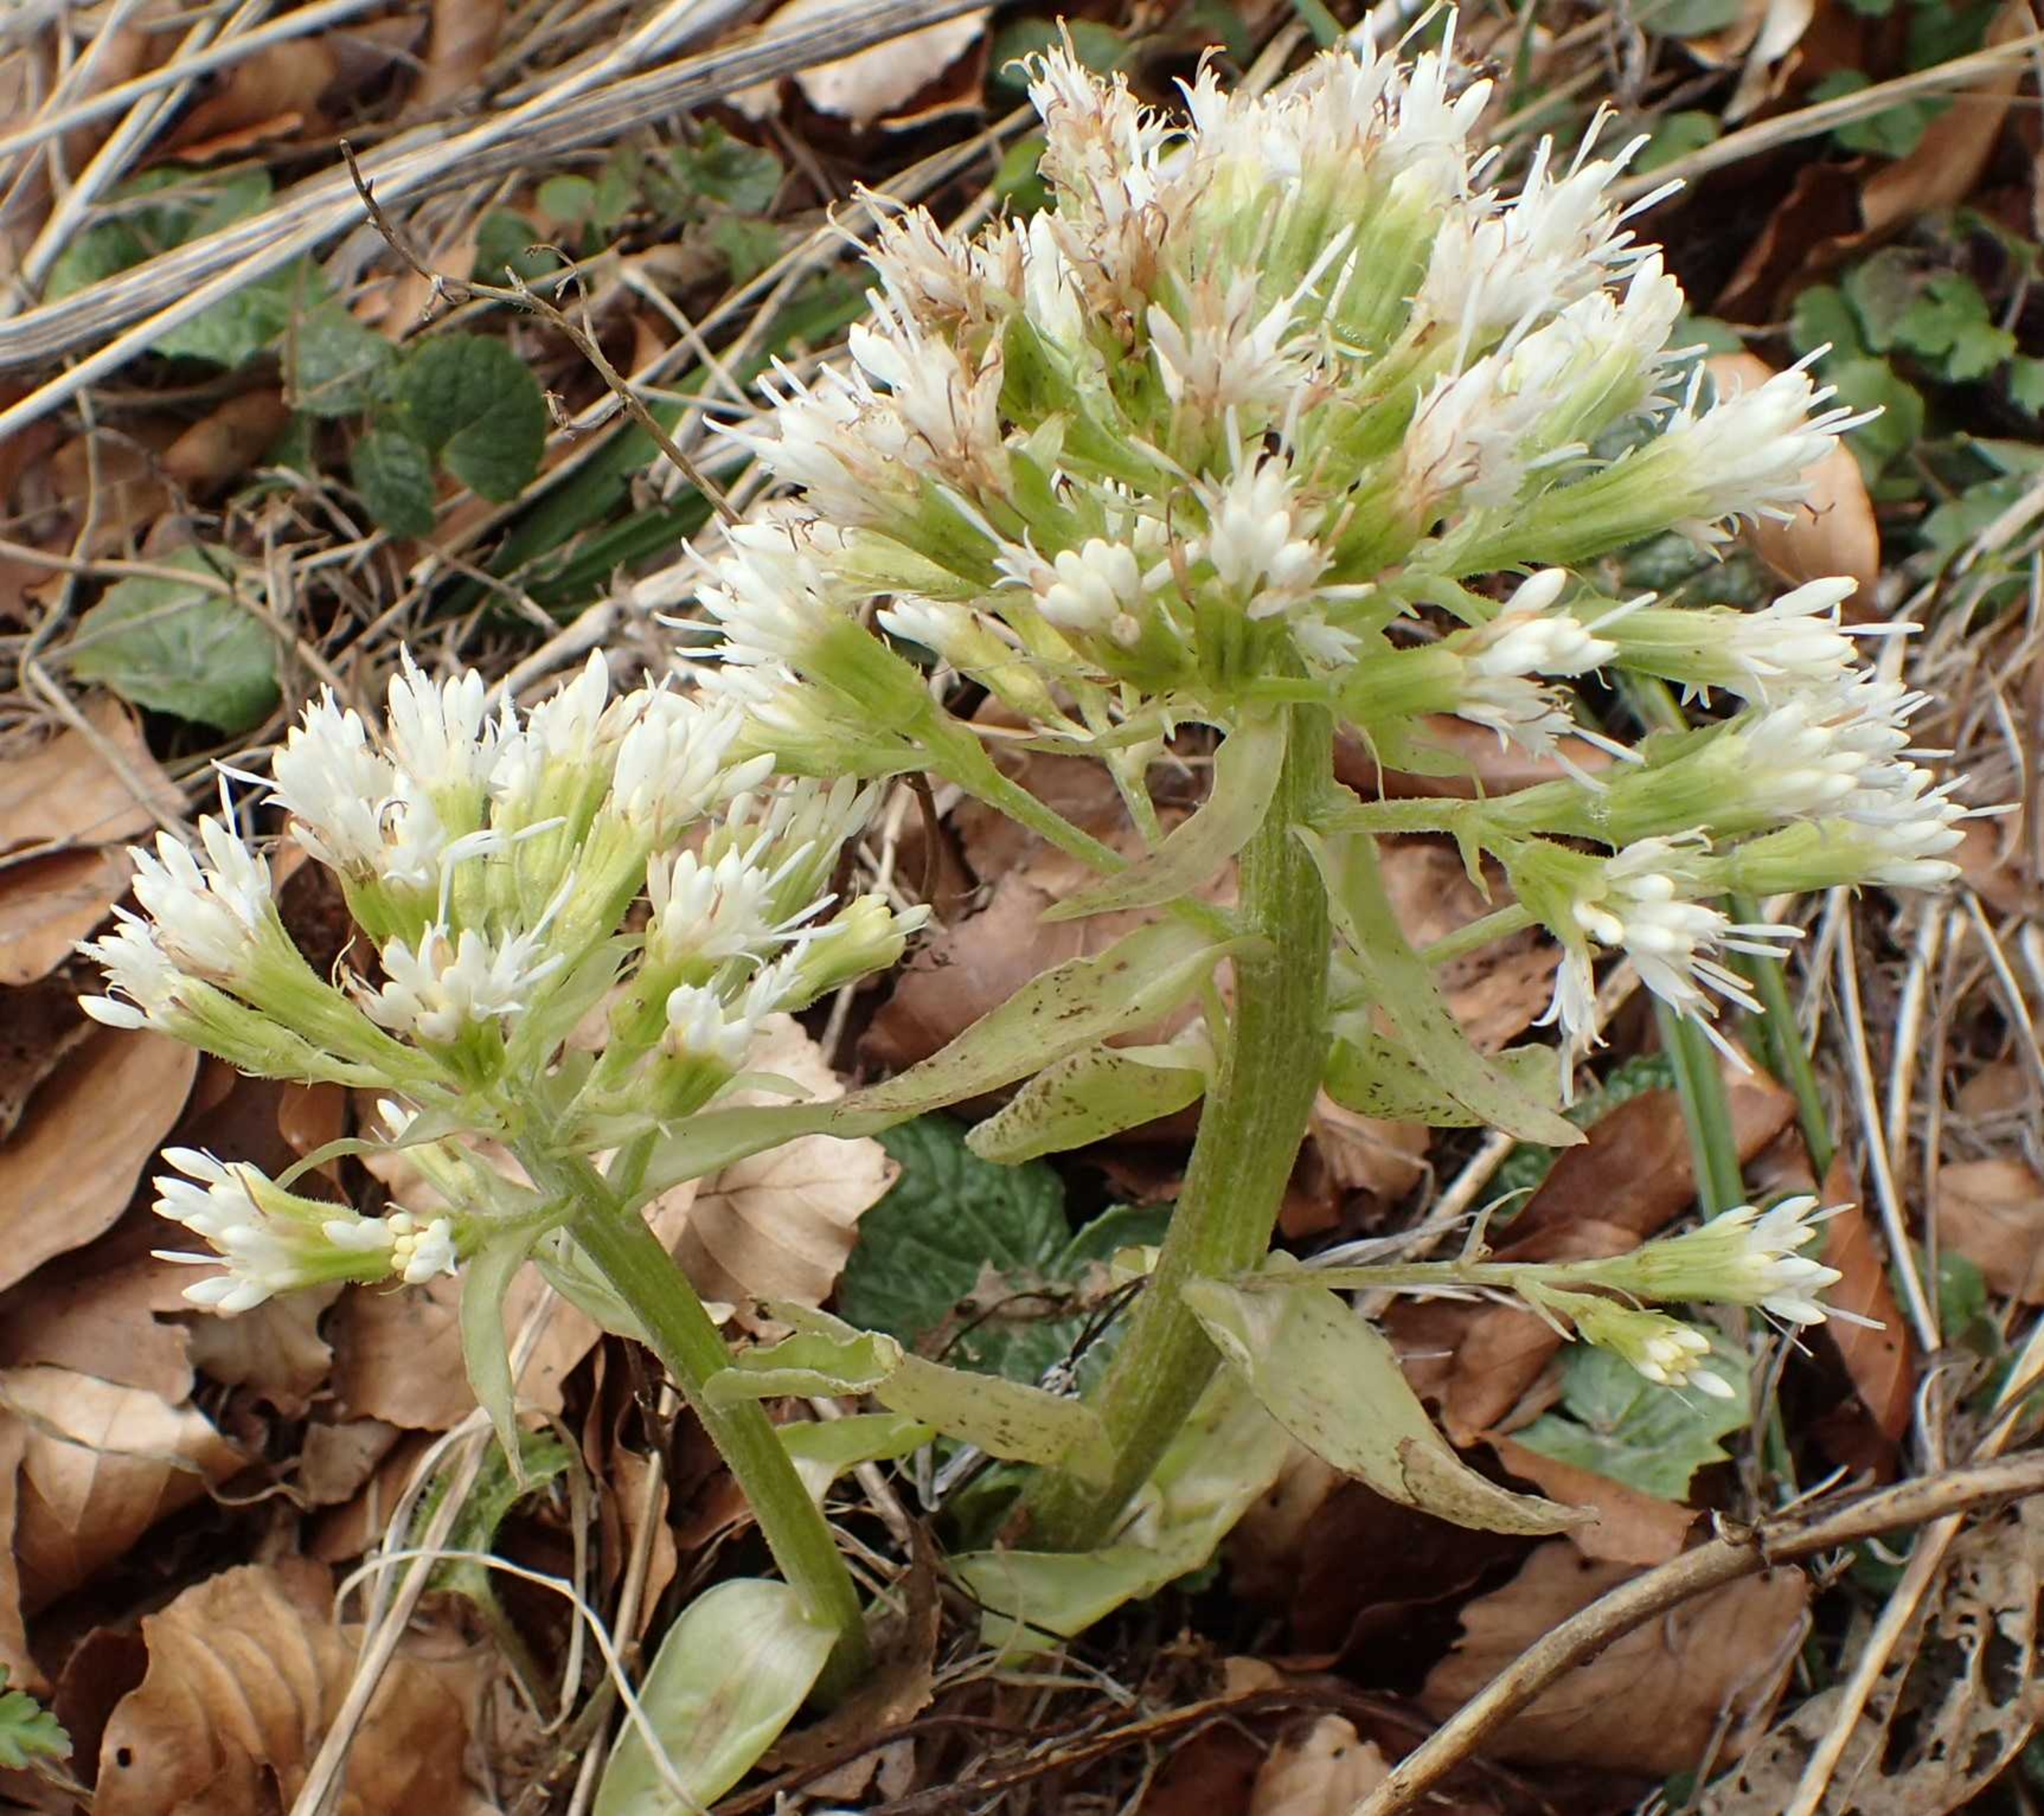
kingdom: Plantae
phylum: Tracheophyta
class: Magnoliopsida
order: Asterales
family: Asteraceae
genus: Petasites
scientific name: Petasites albus
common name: Hvid hestehov
